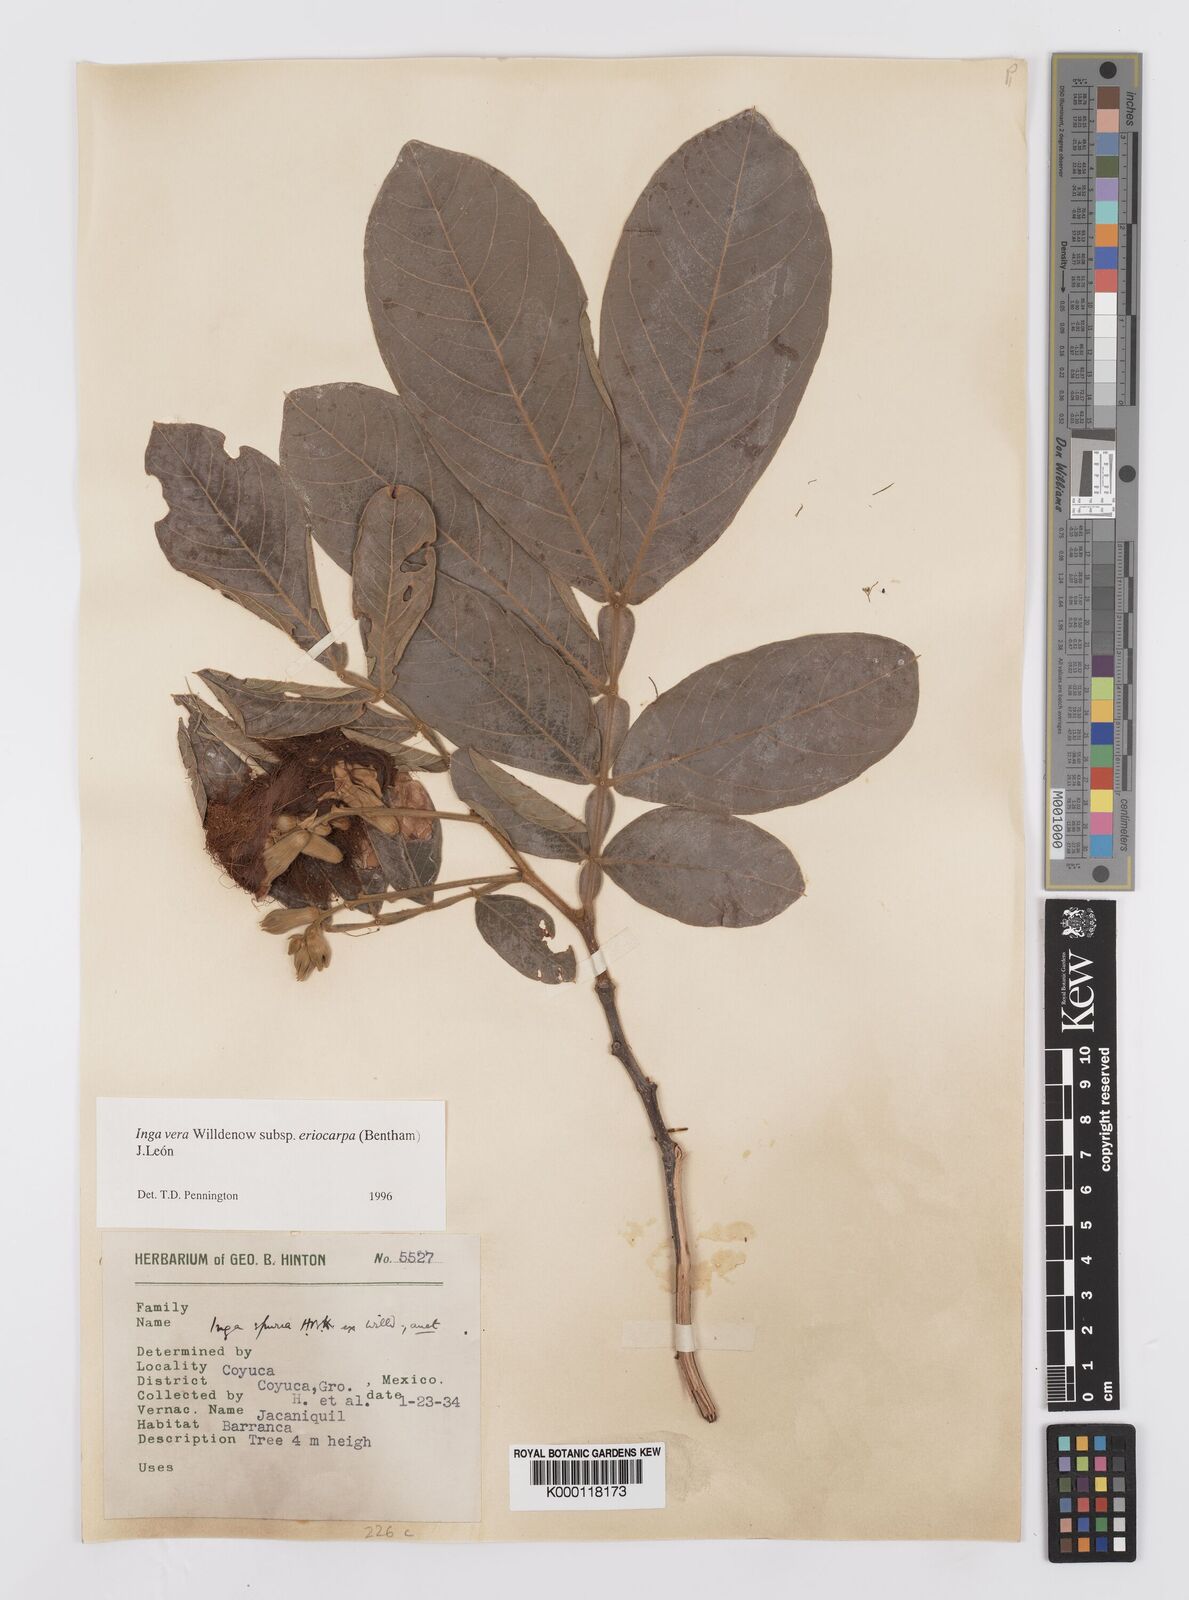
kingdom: Plantae
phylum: Tracheophyta
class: Magnoliopsida
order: Fabales
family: Fabaceae
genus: Inga
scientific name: Inga vera
